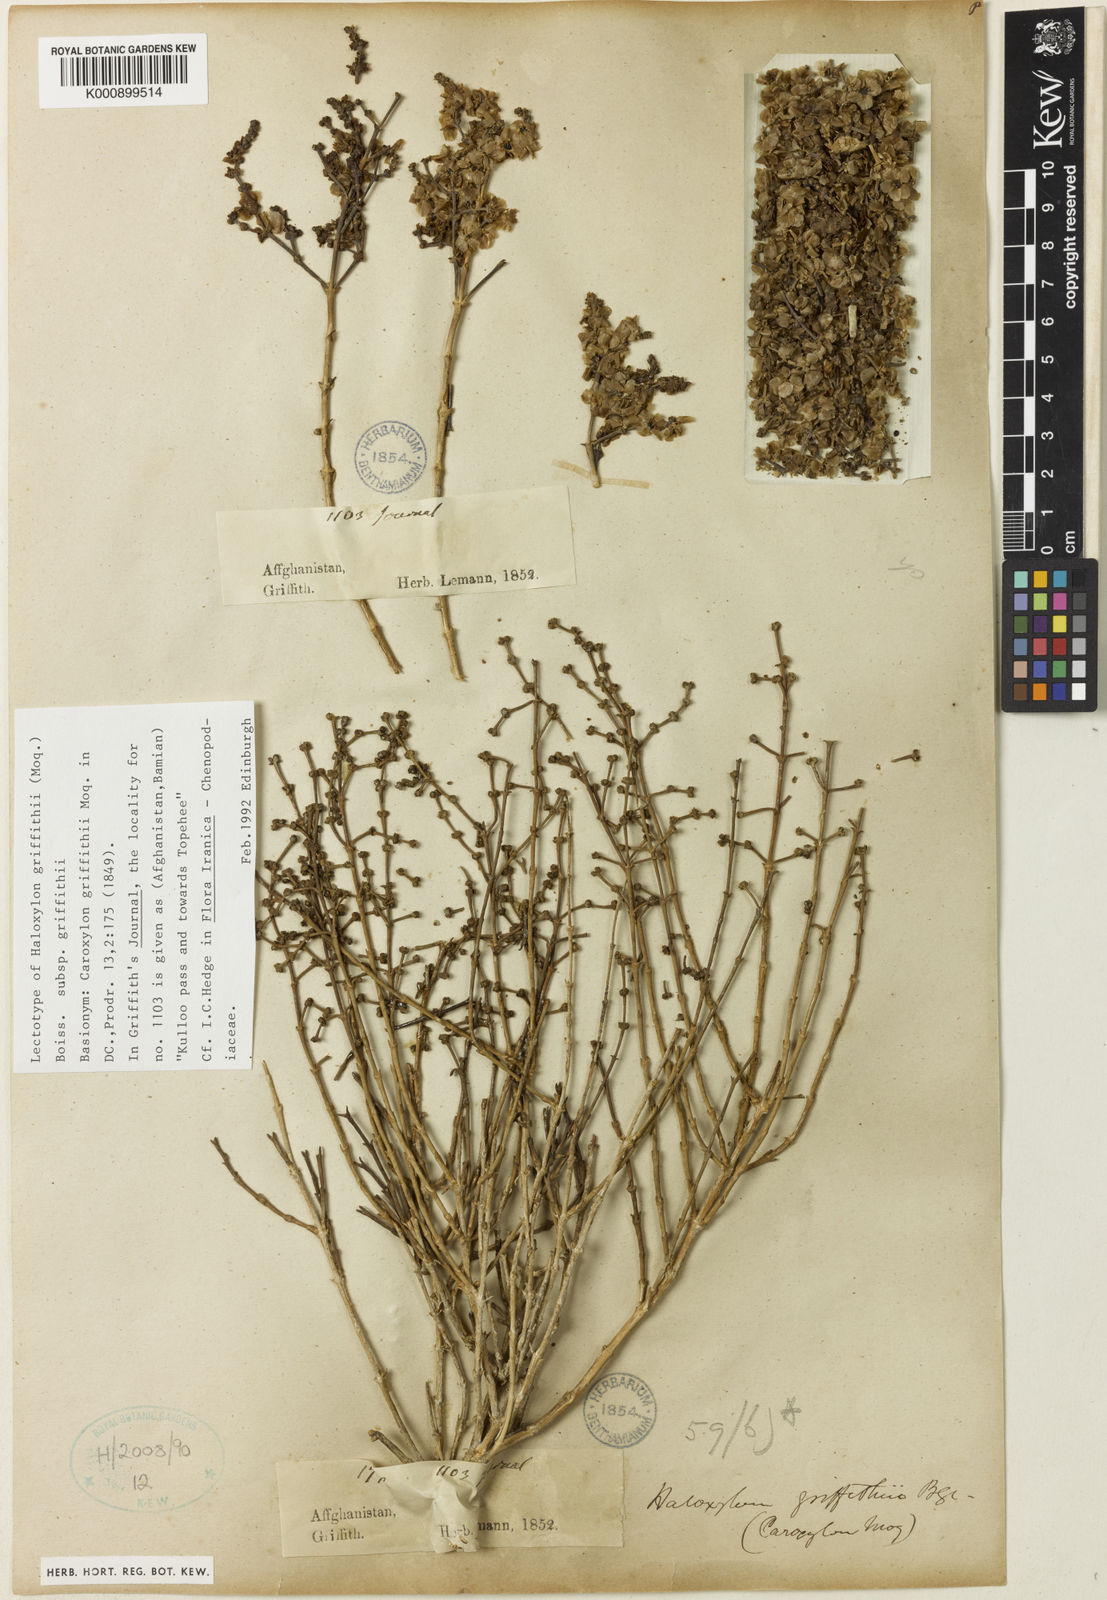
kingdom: Plantae
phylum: Tracheophyta
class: Magnoliopsida
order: Caryophyllales
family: Amaranthaceae
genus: Haloxylon
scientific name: Haloxylon griffithii
